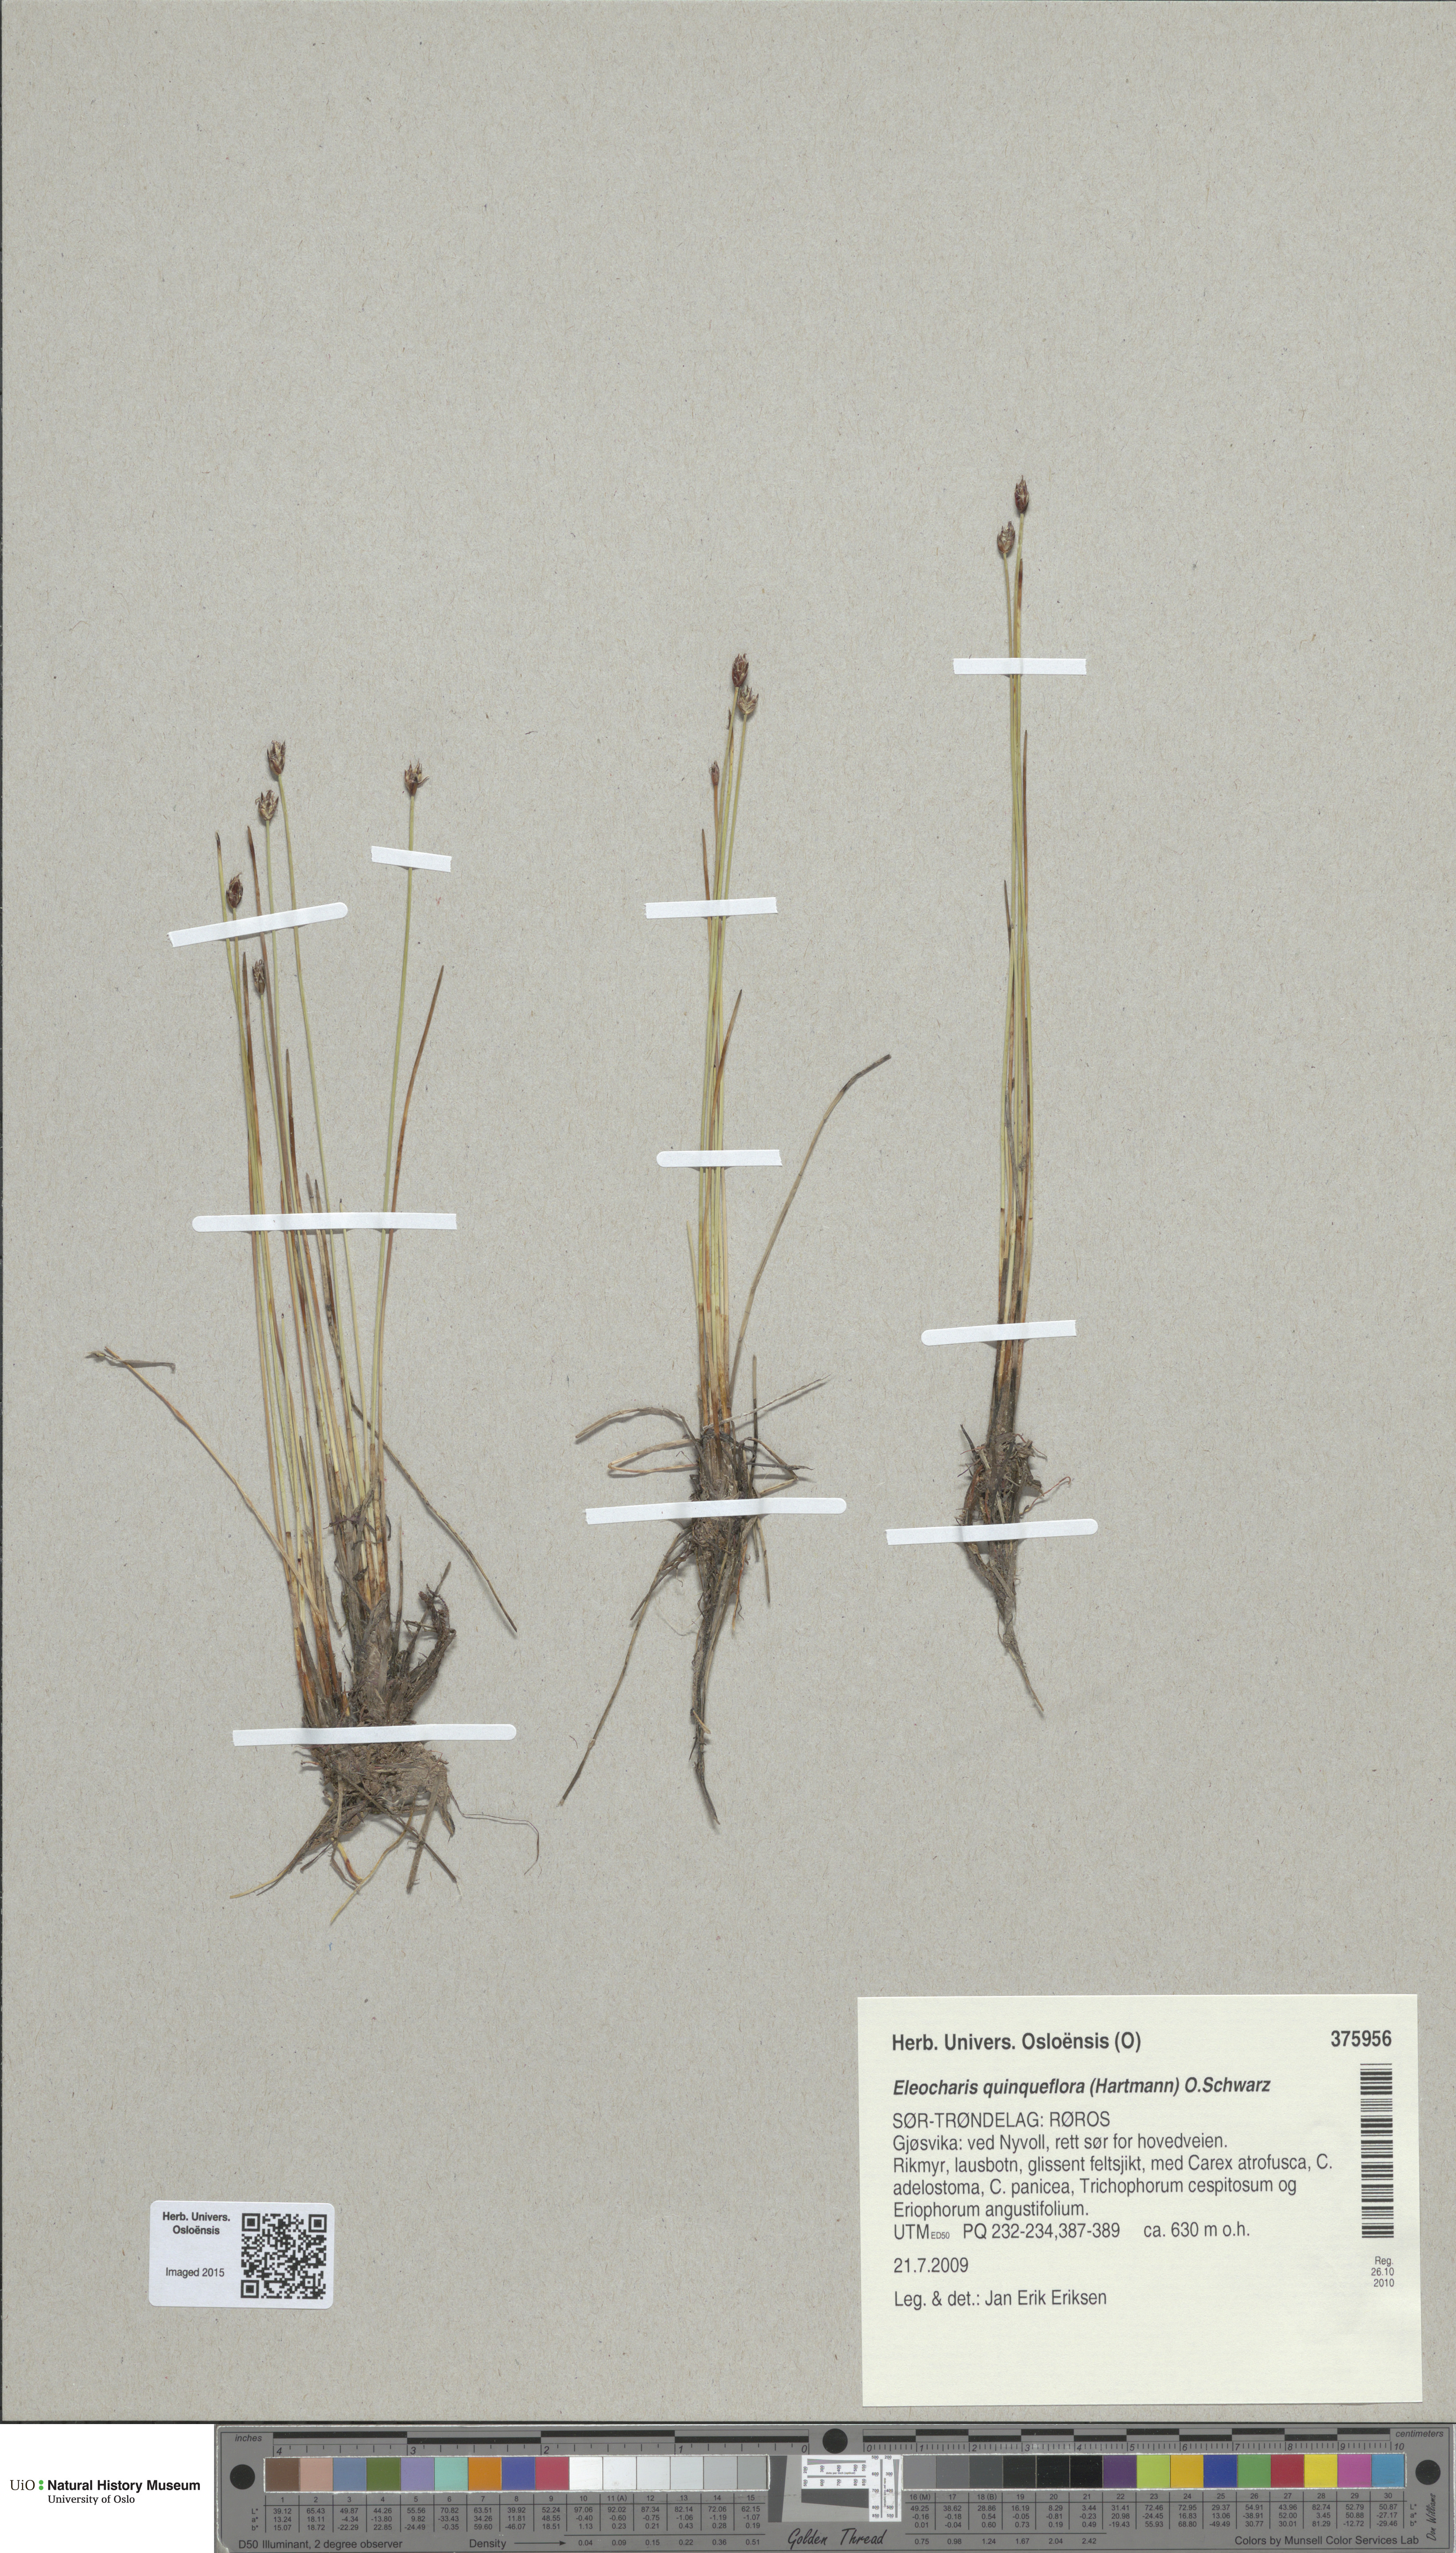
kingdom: Plantae
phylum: Tracheophyta
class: Liliopsida
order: Poales
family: Cyperaceae
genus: Eleocharis
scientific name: Eleocharis quinqueflora
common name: Few-flowered spike-rush
